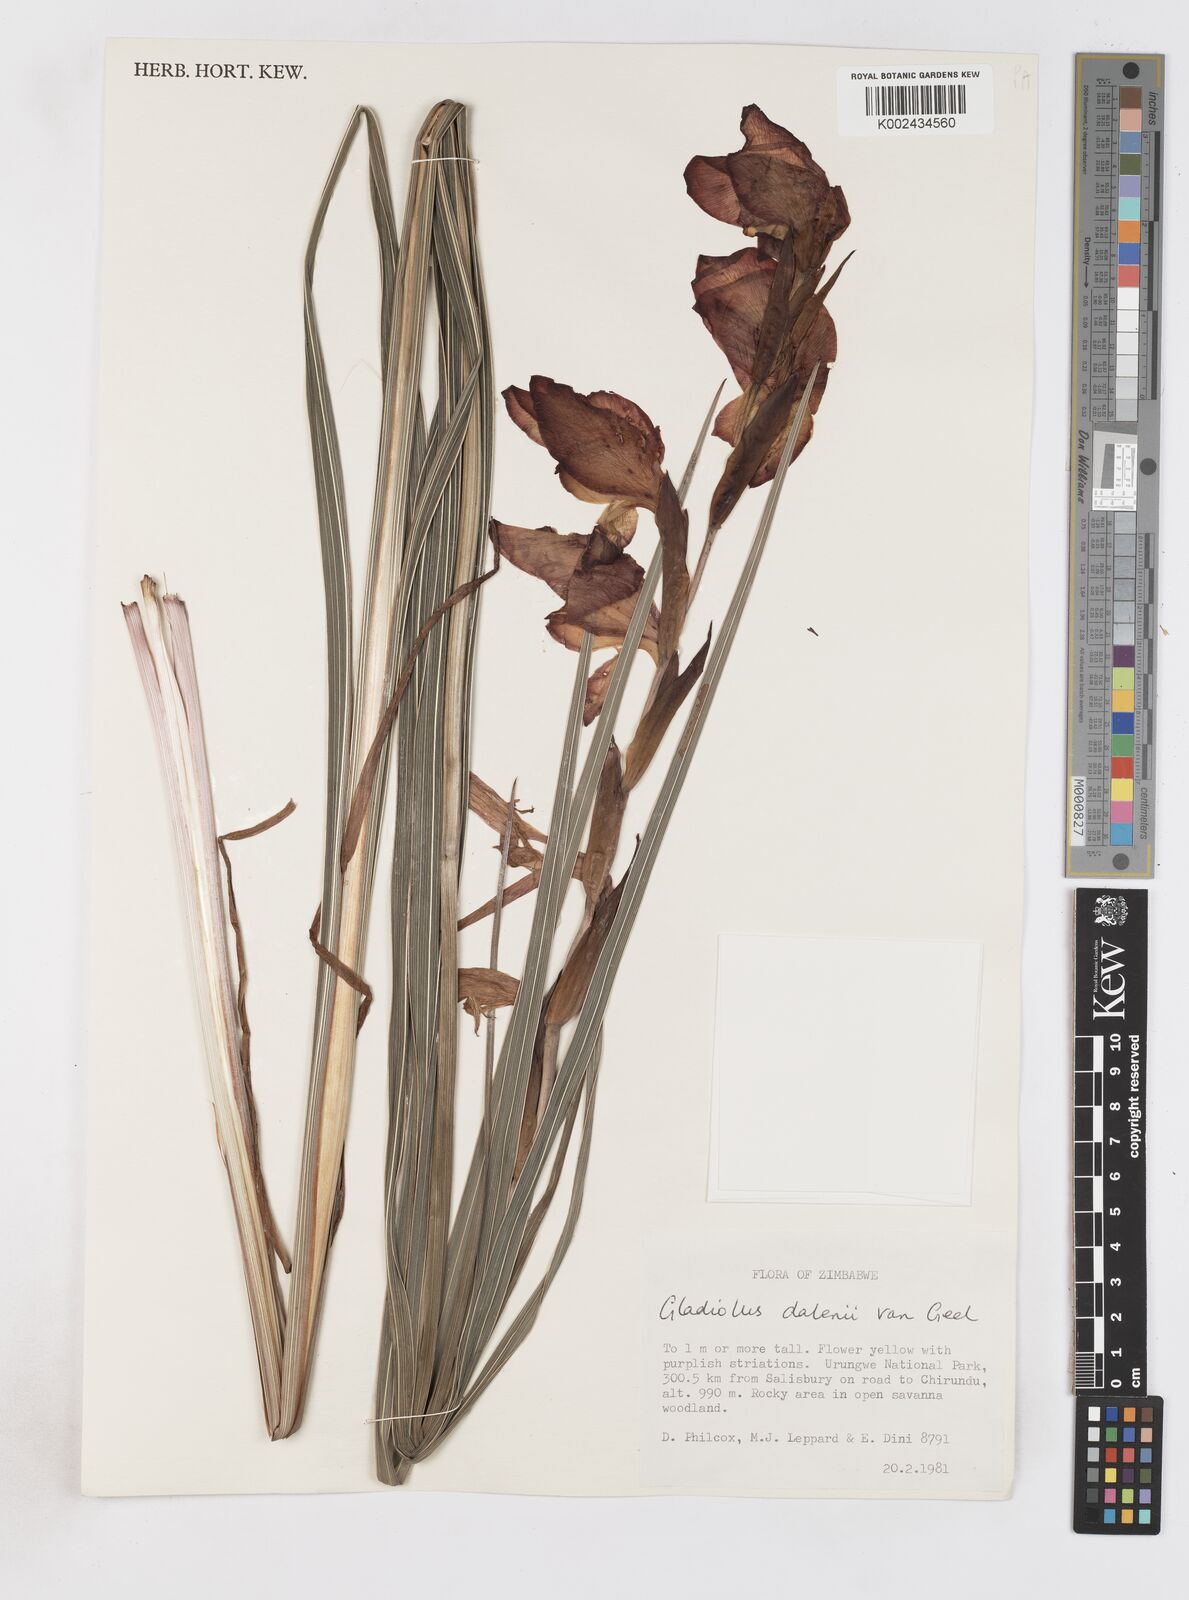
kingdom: Plantae
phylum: Tracheophyta
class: Liliopsida
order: Asparagales
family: Iridaceae
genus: Gladiolus
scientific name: Gladiolus dalenii
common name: Cornflag
